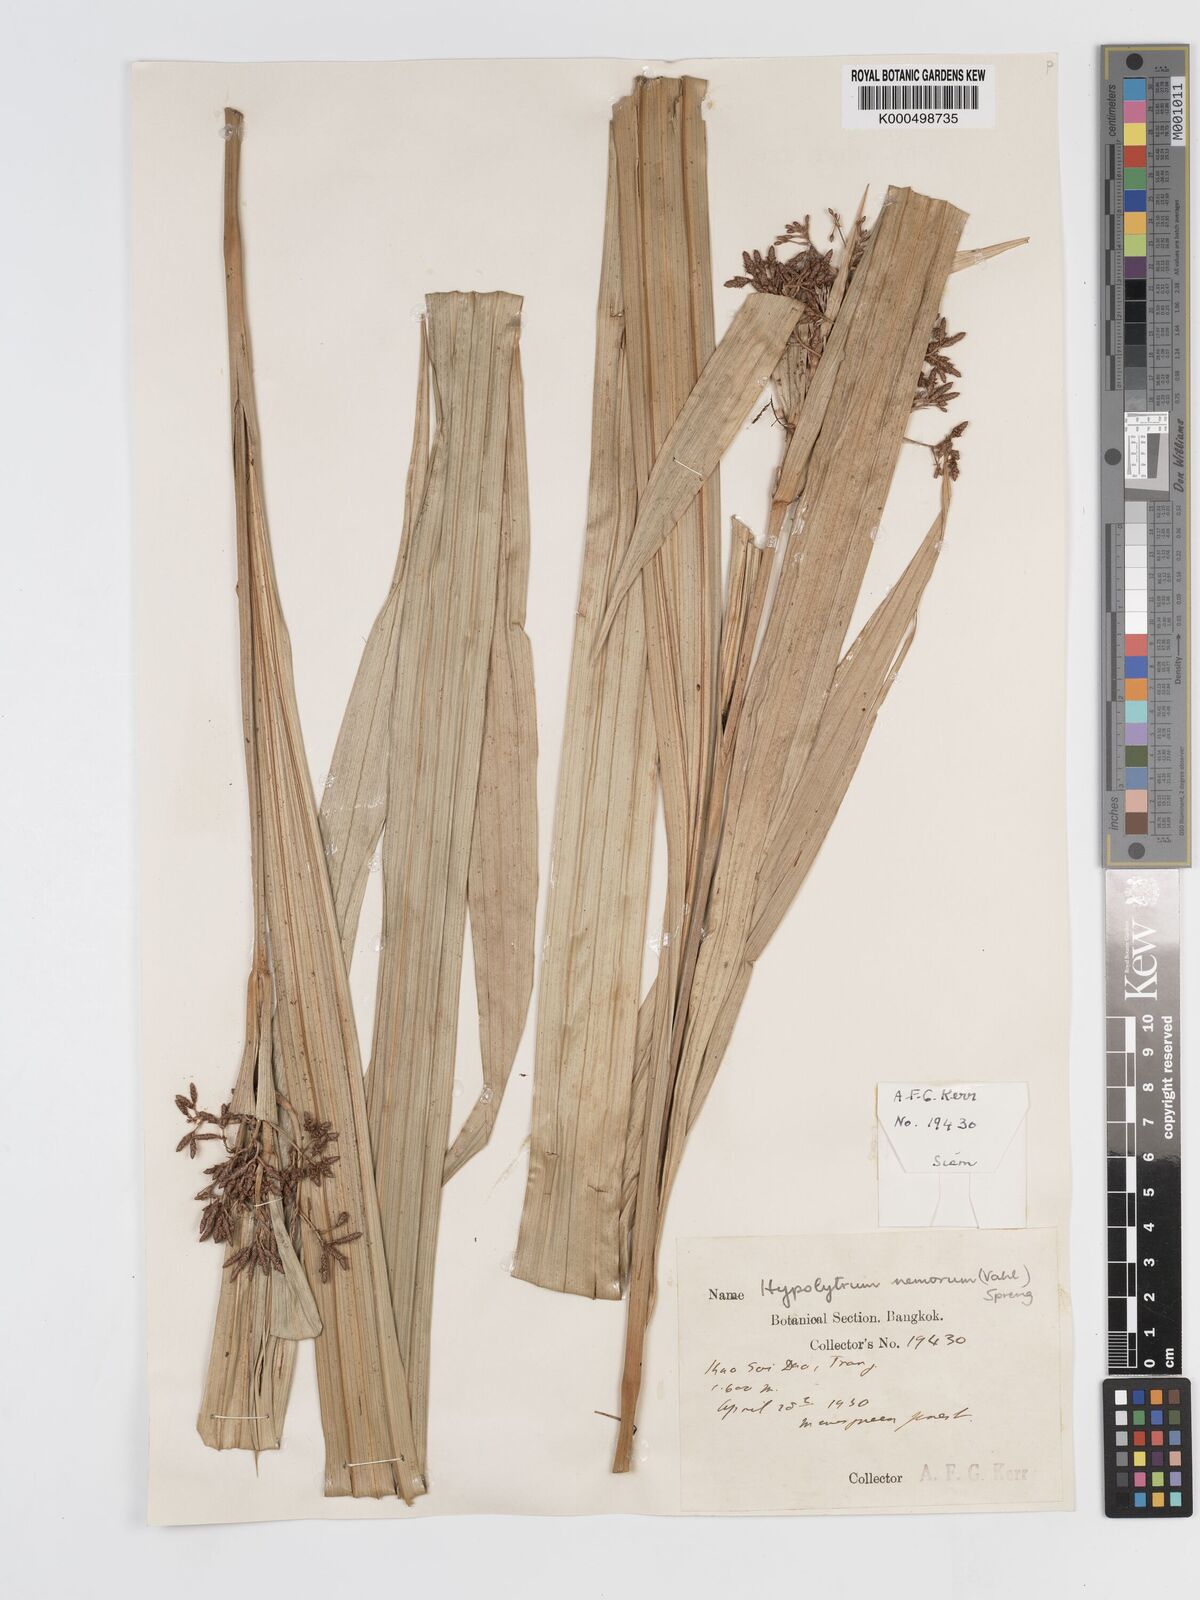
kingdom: Plantae
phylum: Tracheophyta
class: Liliopsida
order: Poales
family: Cyperaceae
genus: Hypolytrum
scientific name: Hypolytrum nemorum
